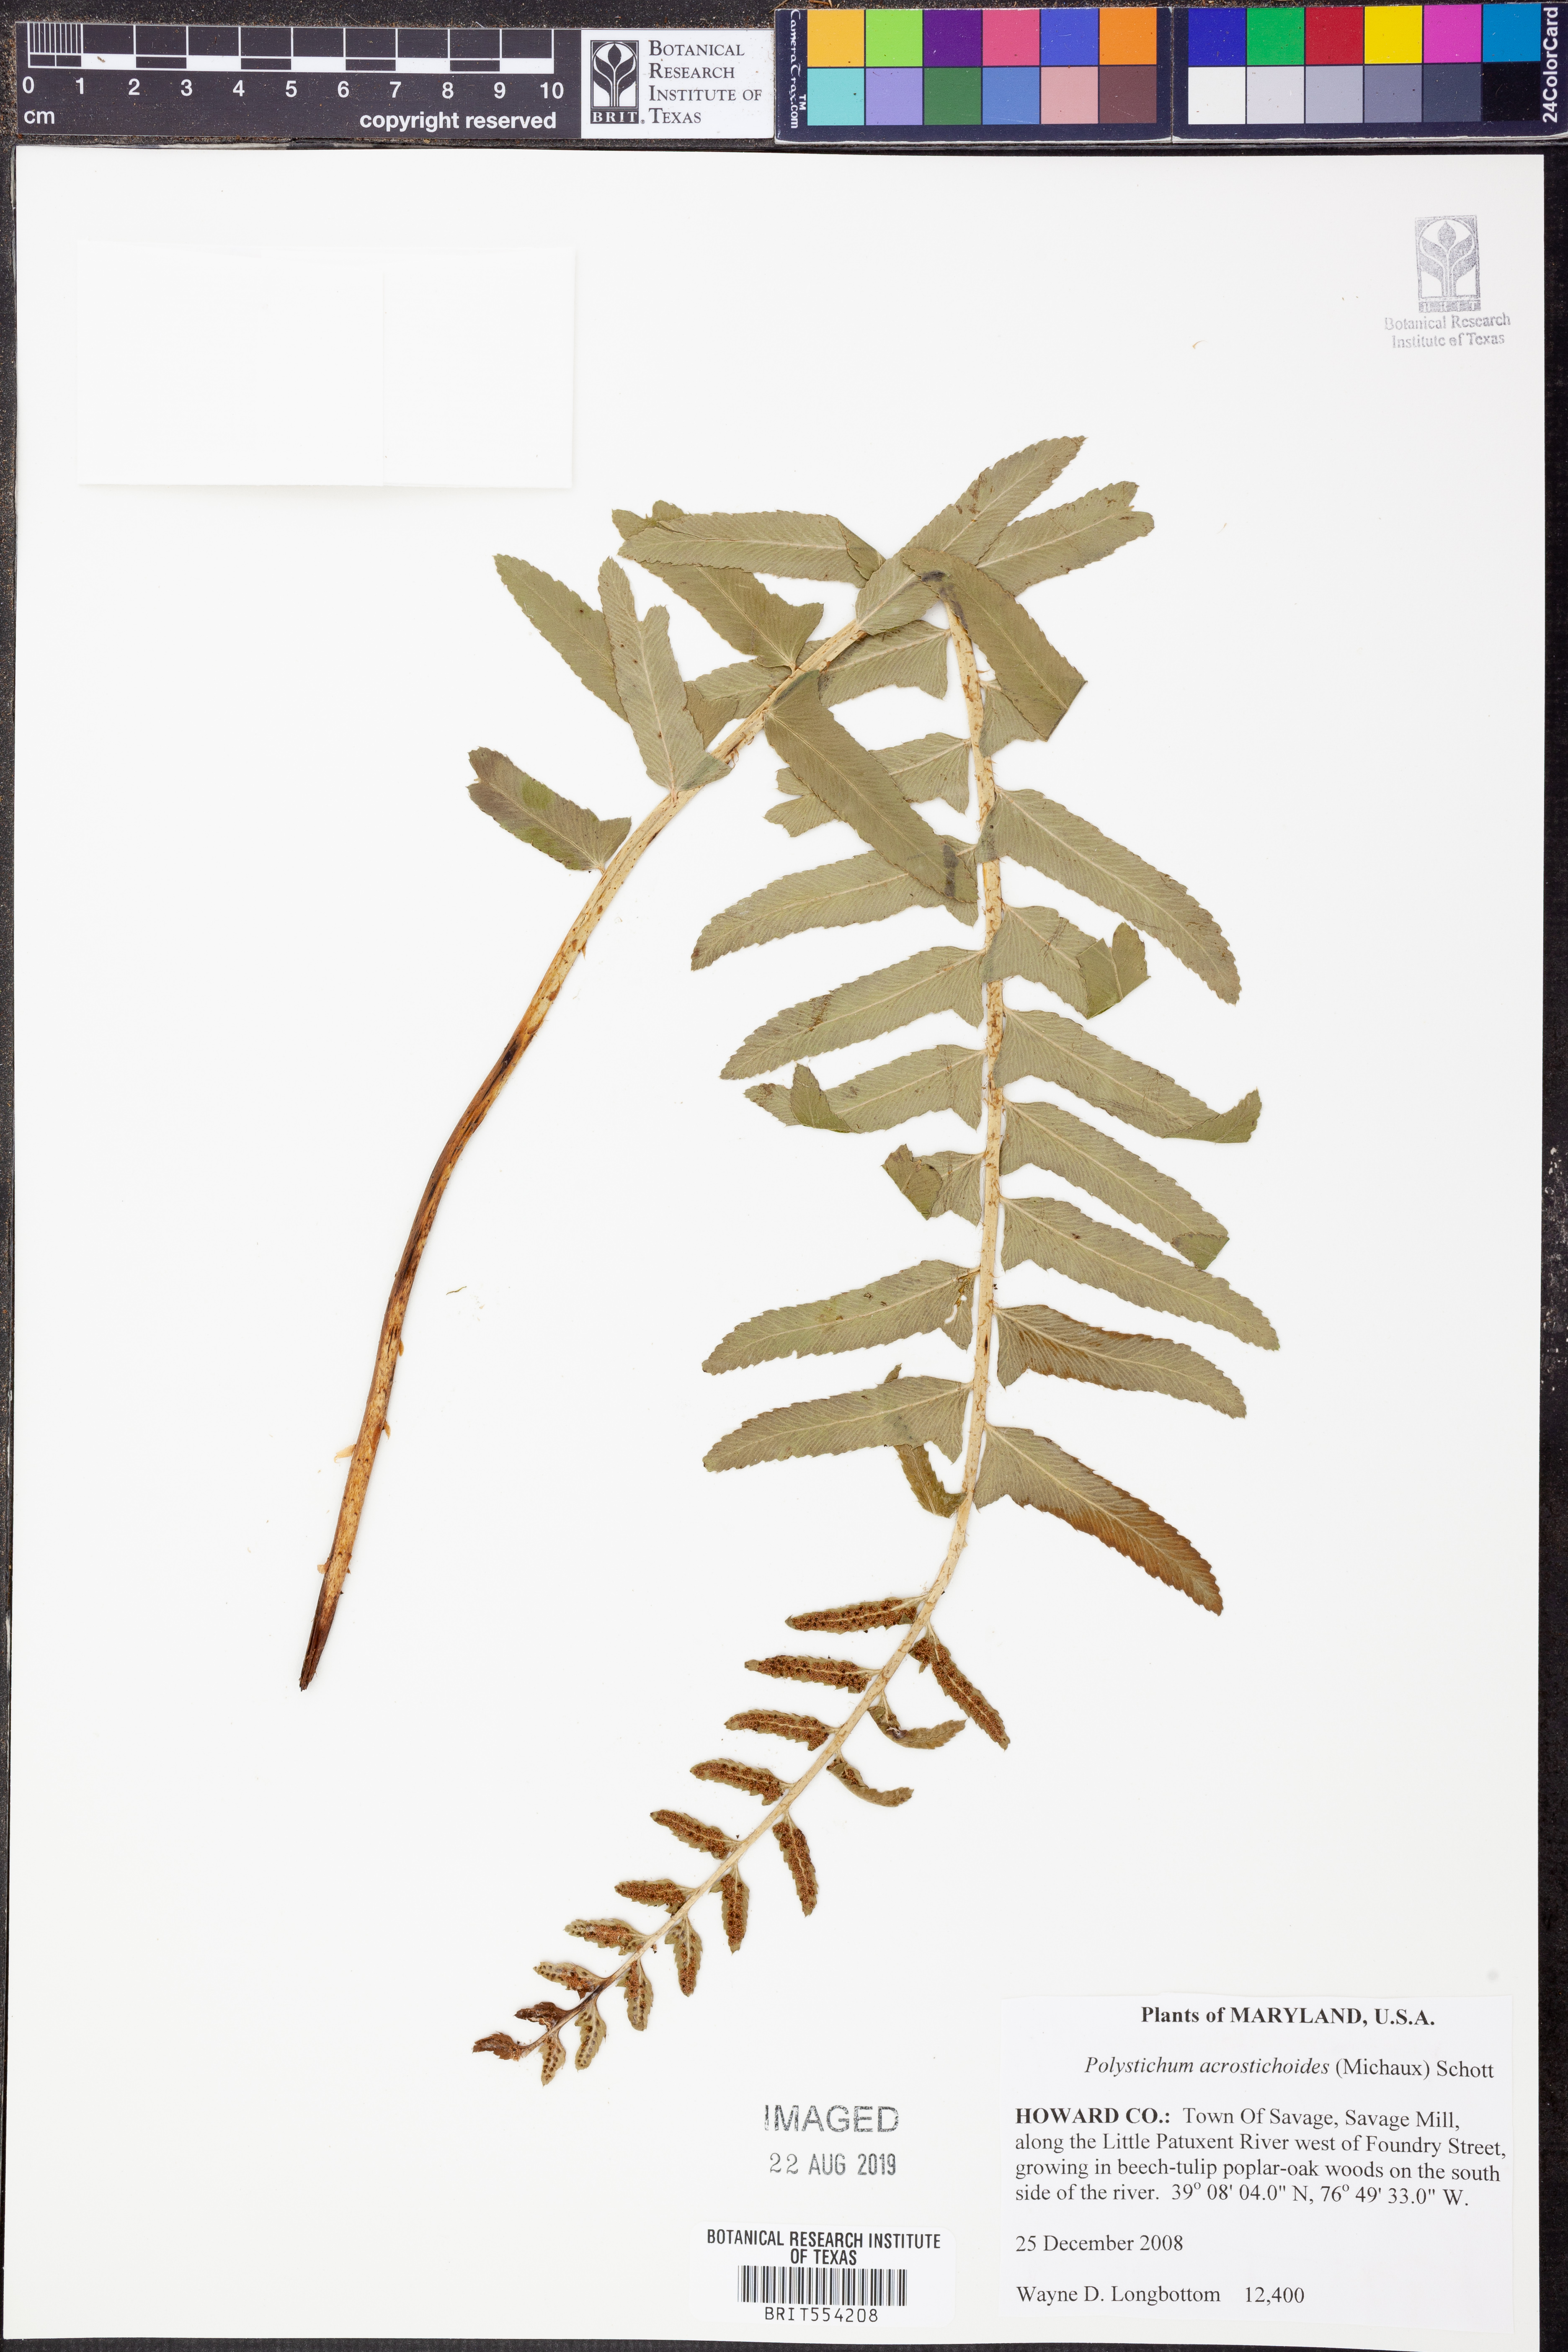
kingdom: Plantae
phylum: Tracheophyta
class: Polypodiopsida
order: Polypodiales
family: Dryopteridaceae
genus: Polystichum
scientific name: Polystichum acrostichoides
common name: Christmas fern
